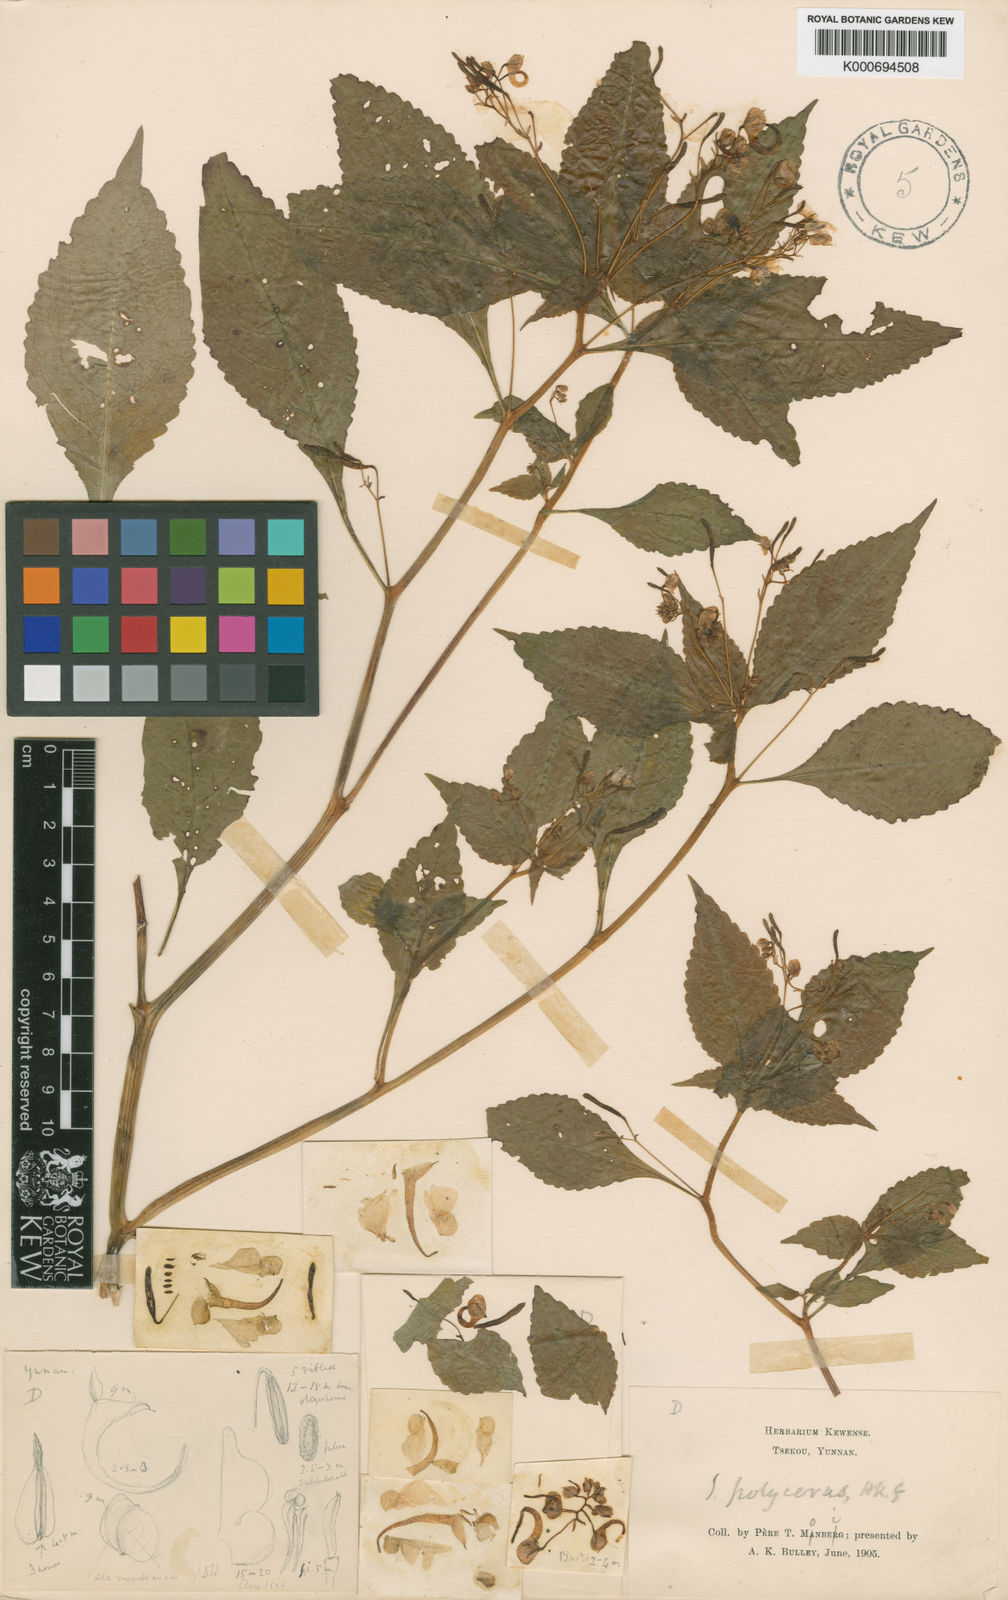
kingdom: Plantae
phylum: Tracheophyta
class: Magnoliopsida
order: Ericales
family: Balsaminaceae
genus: Impatiens
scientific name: Impatiens polyceras
